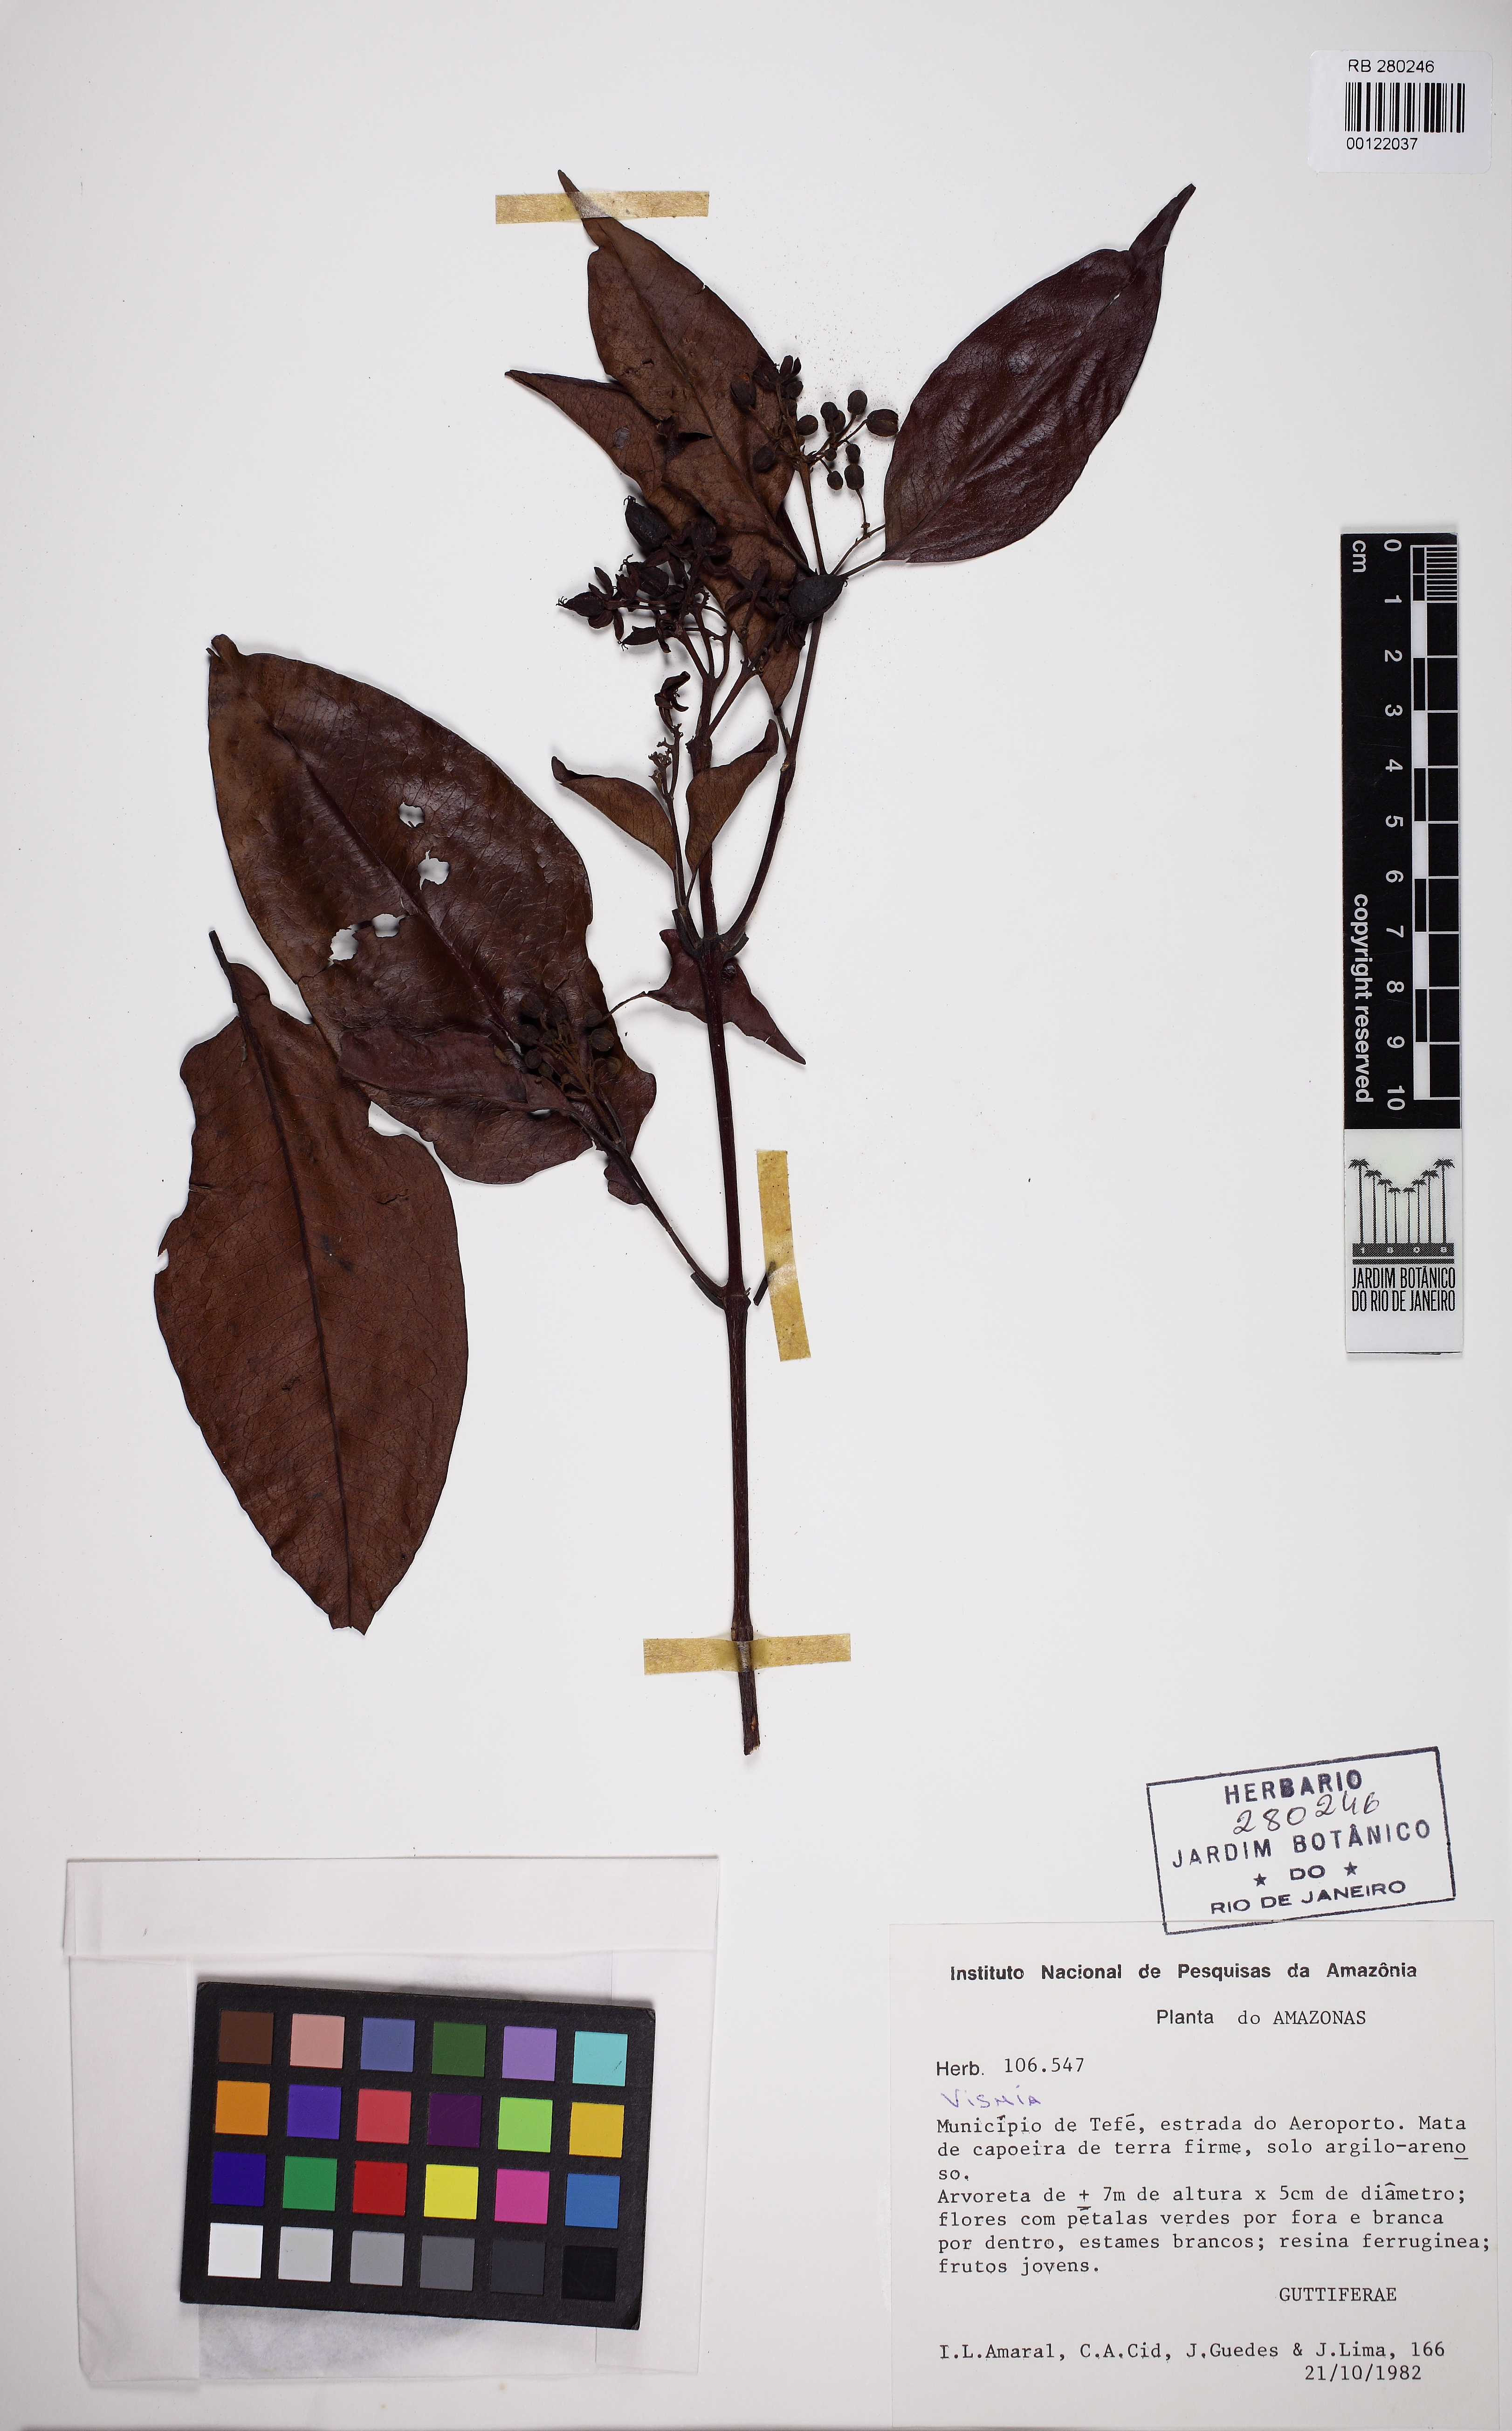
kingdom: Plantae
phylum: Tracheophyta
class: Magnoliopsida
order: Malpighiales
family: Hypericaceae
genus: Vismia
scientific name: Vismia cayennensis
